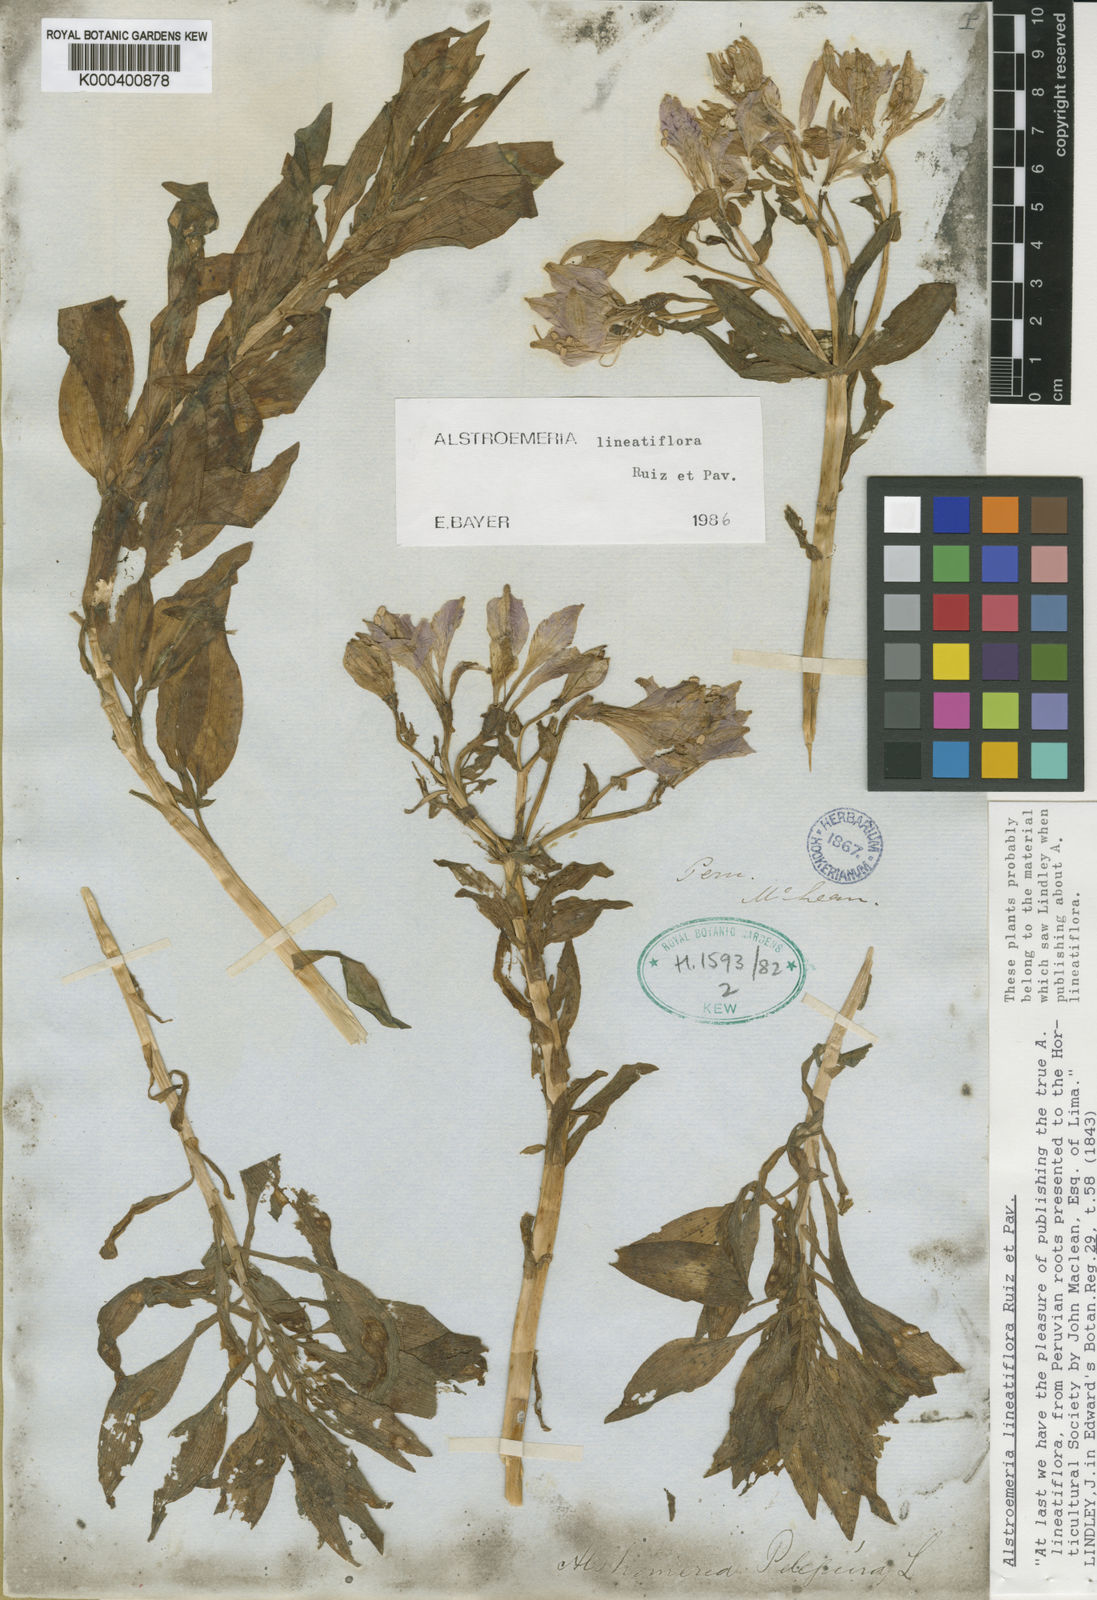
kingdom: Plantae
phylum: Tracheophyta
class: Liliopsida
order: Liliales
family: Alstroemeriaceae
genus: Alstroemeria
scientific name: Alstroemeria chorillensis
